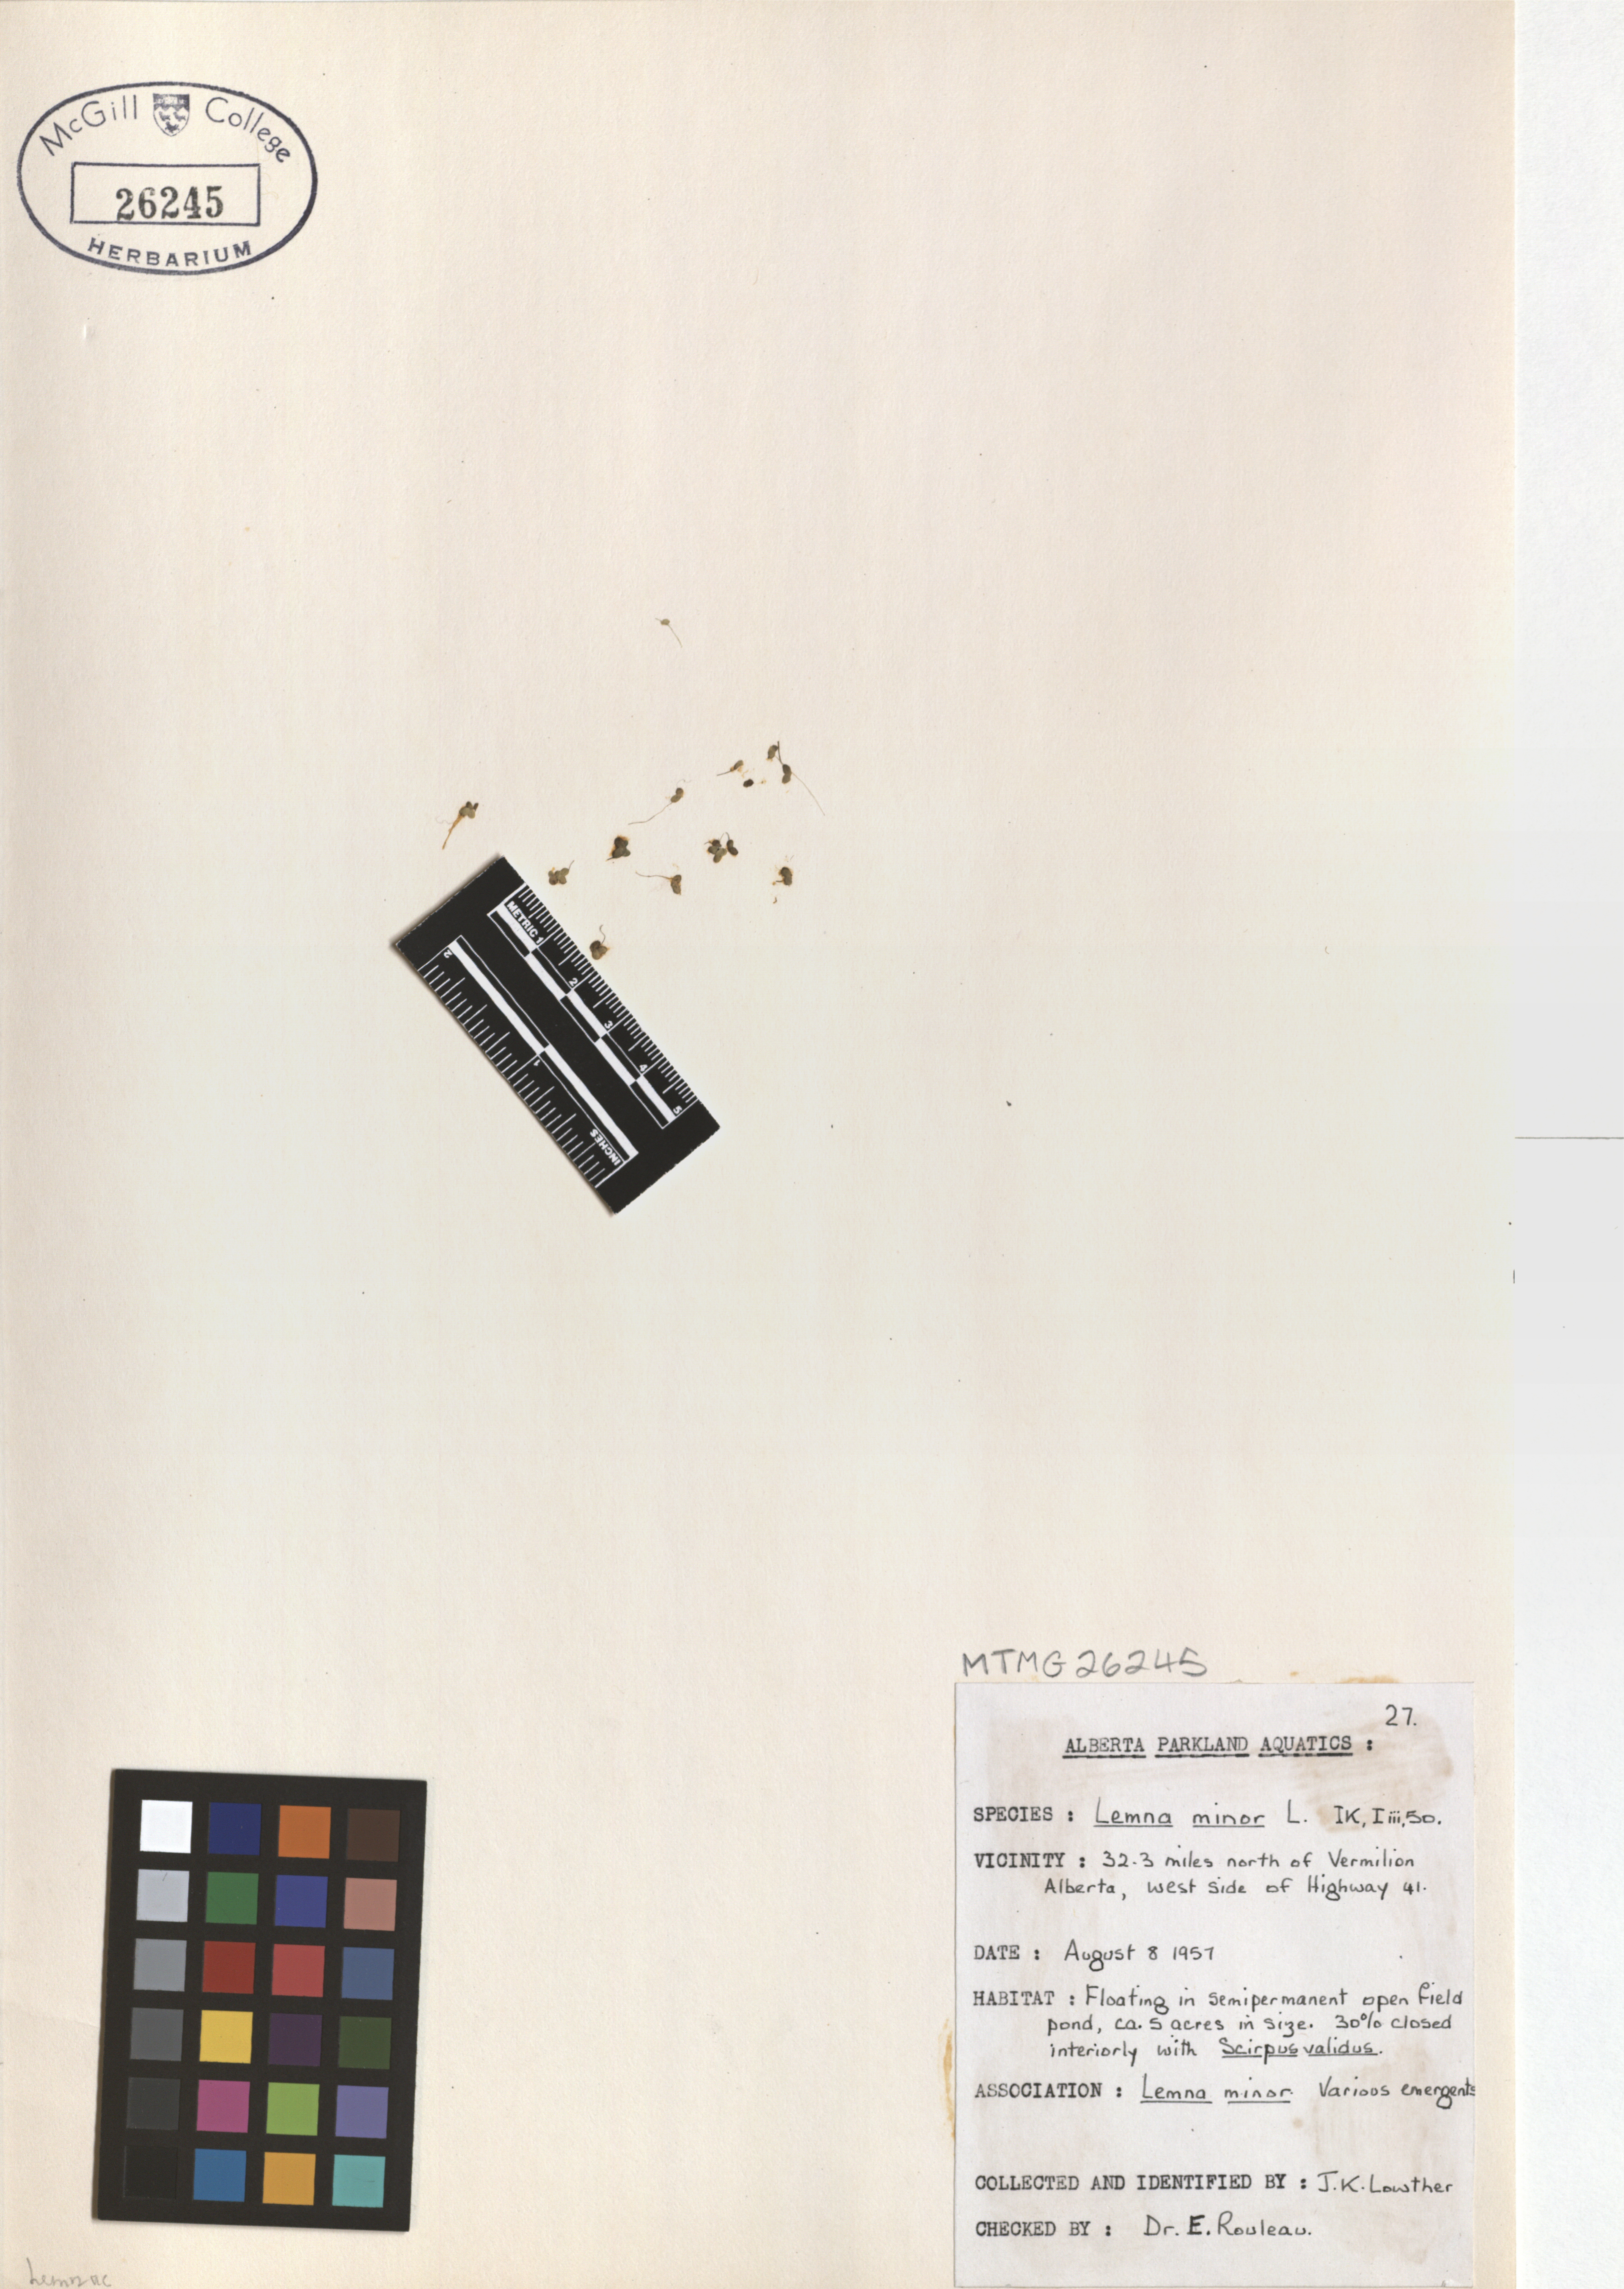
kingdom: Plantae
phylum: Tracheophyta
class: Liliopsida
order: Alismatales
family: Araceae
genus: Lemna
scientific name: Lemna minor
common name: Common duckweed
